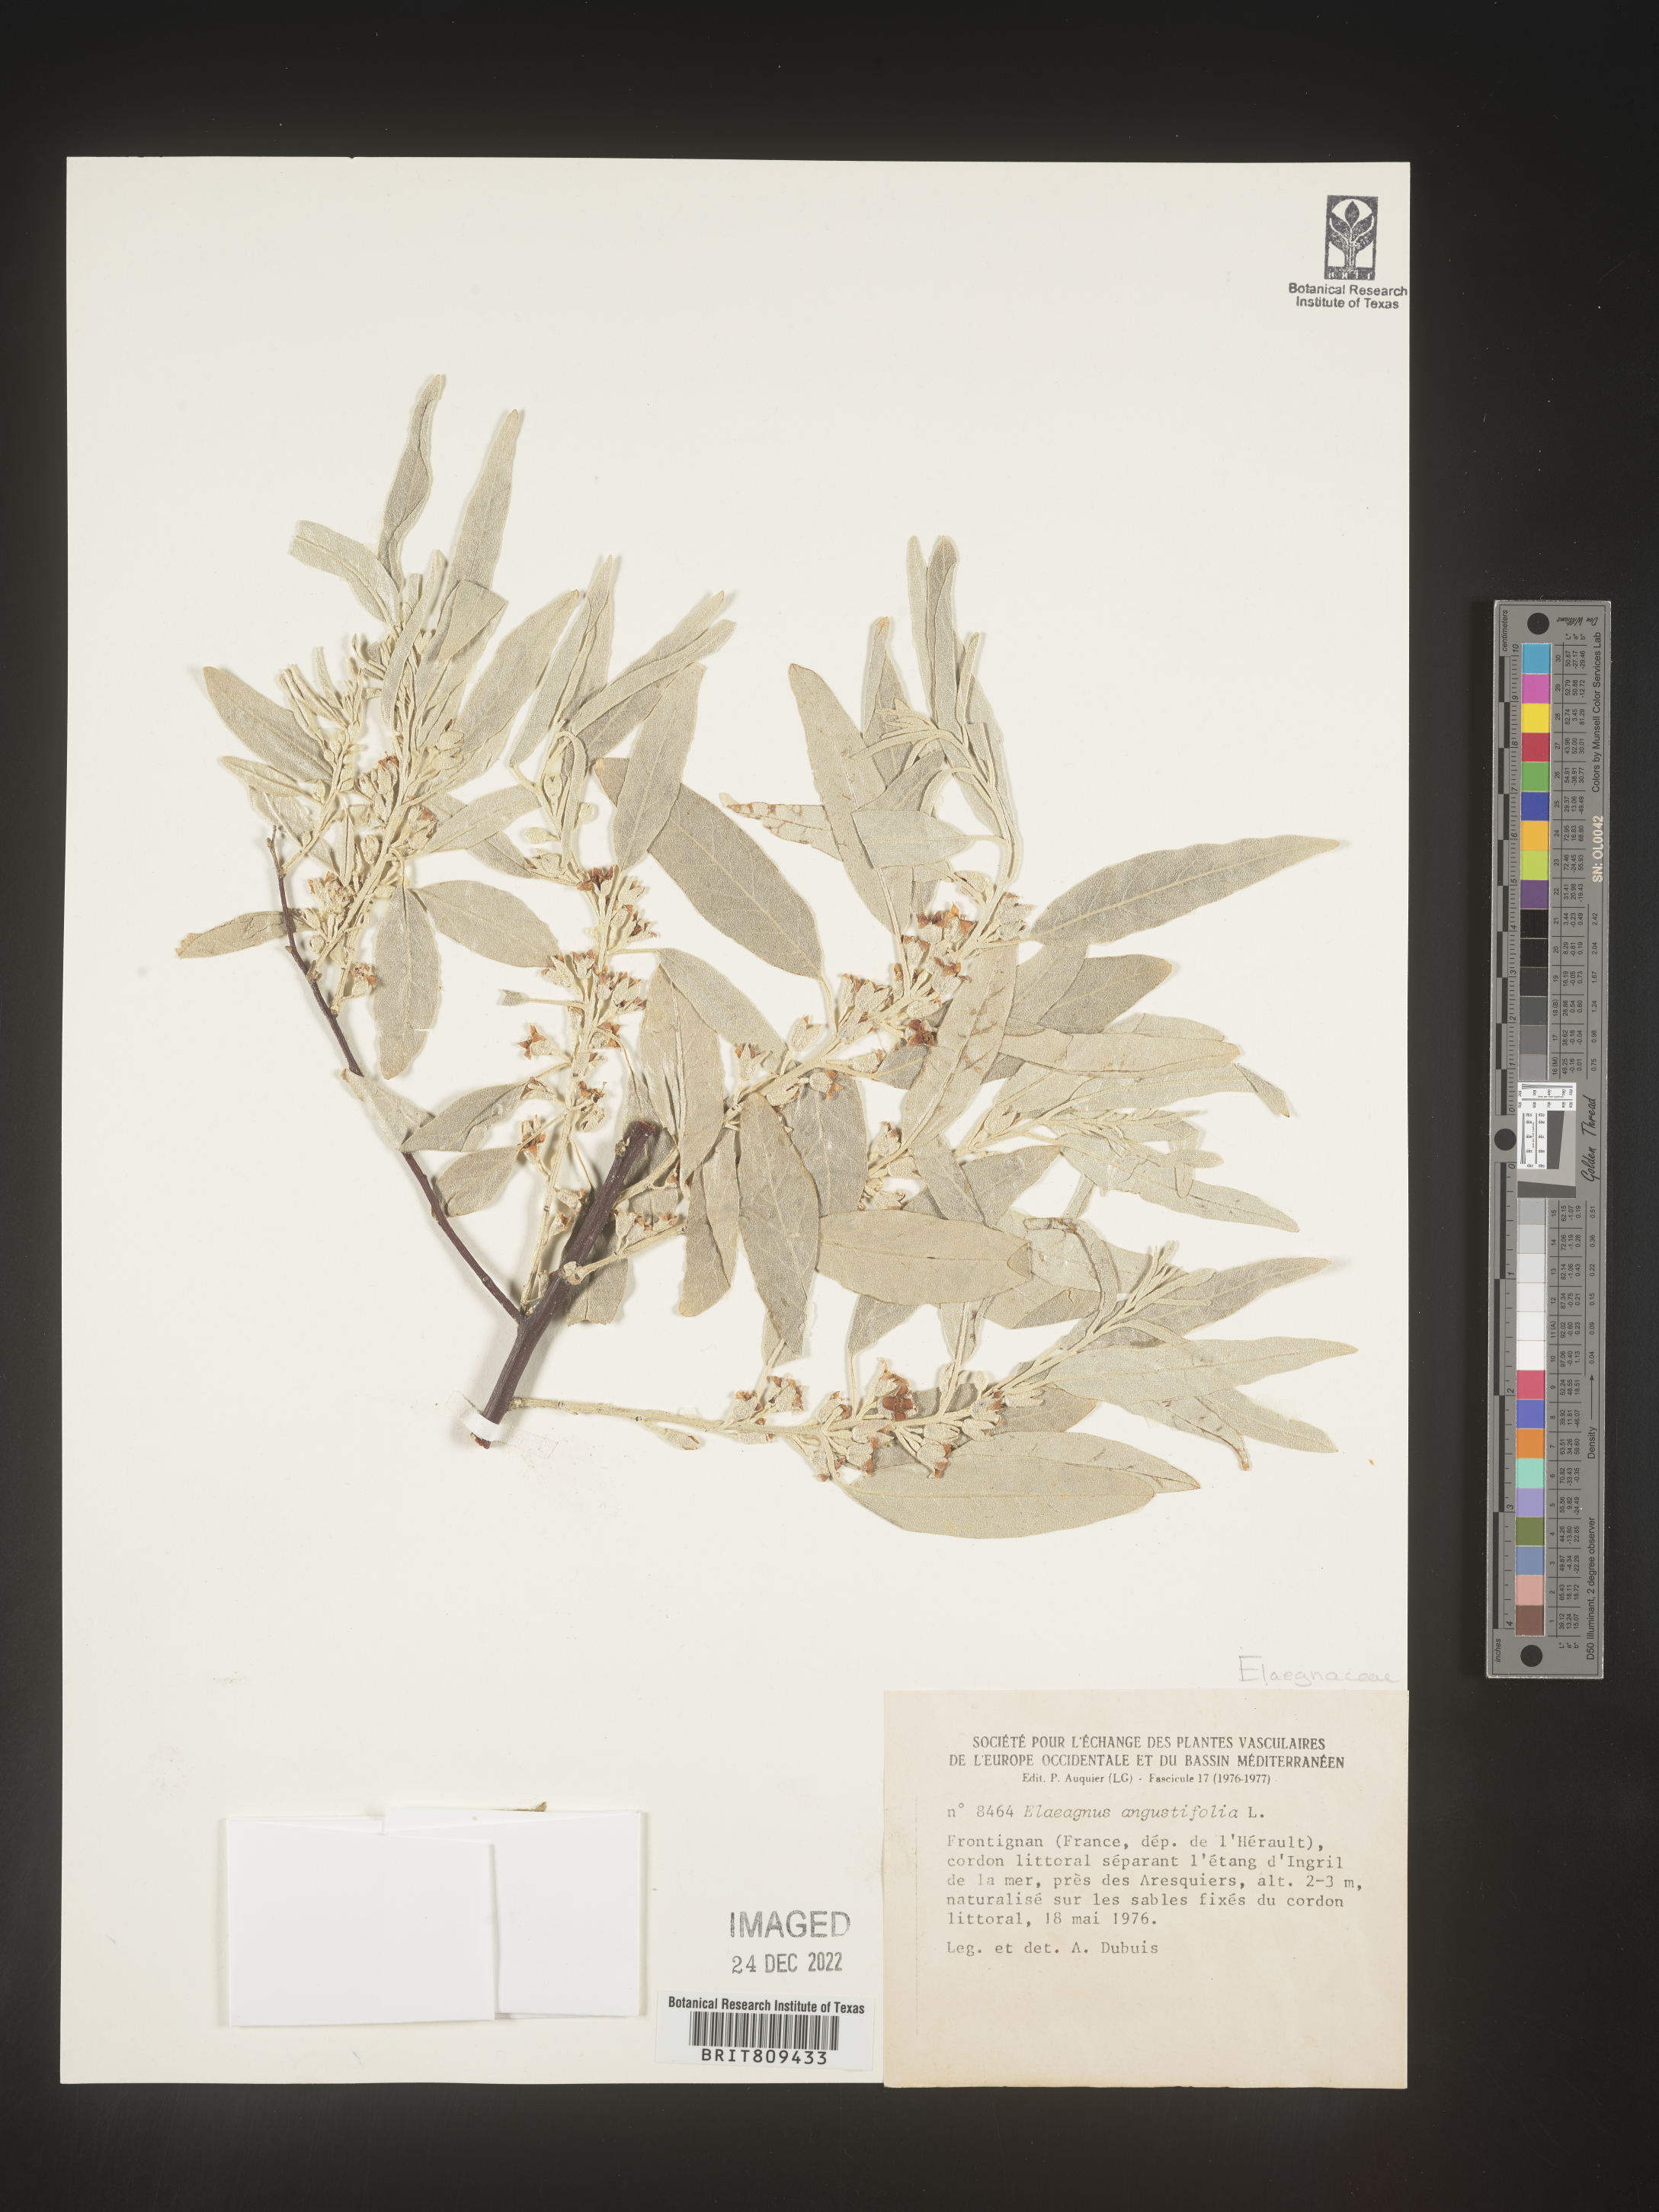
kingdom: Plantae
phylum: Tracheophyta
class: Magnoliopsida
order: Rosales
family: Elaeagnaceae
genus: Elaeagnus
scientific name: Elaeagnus
